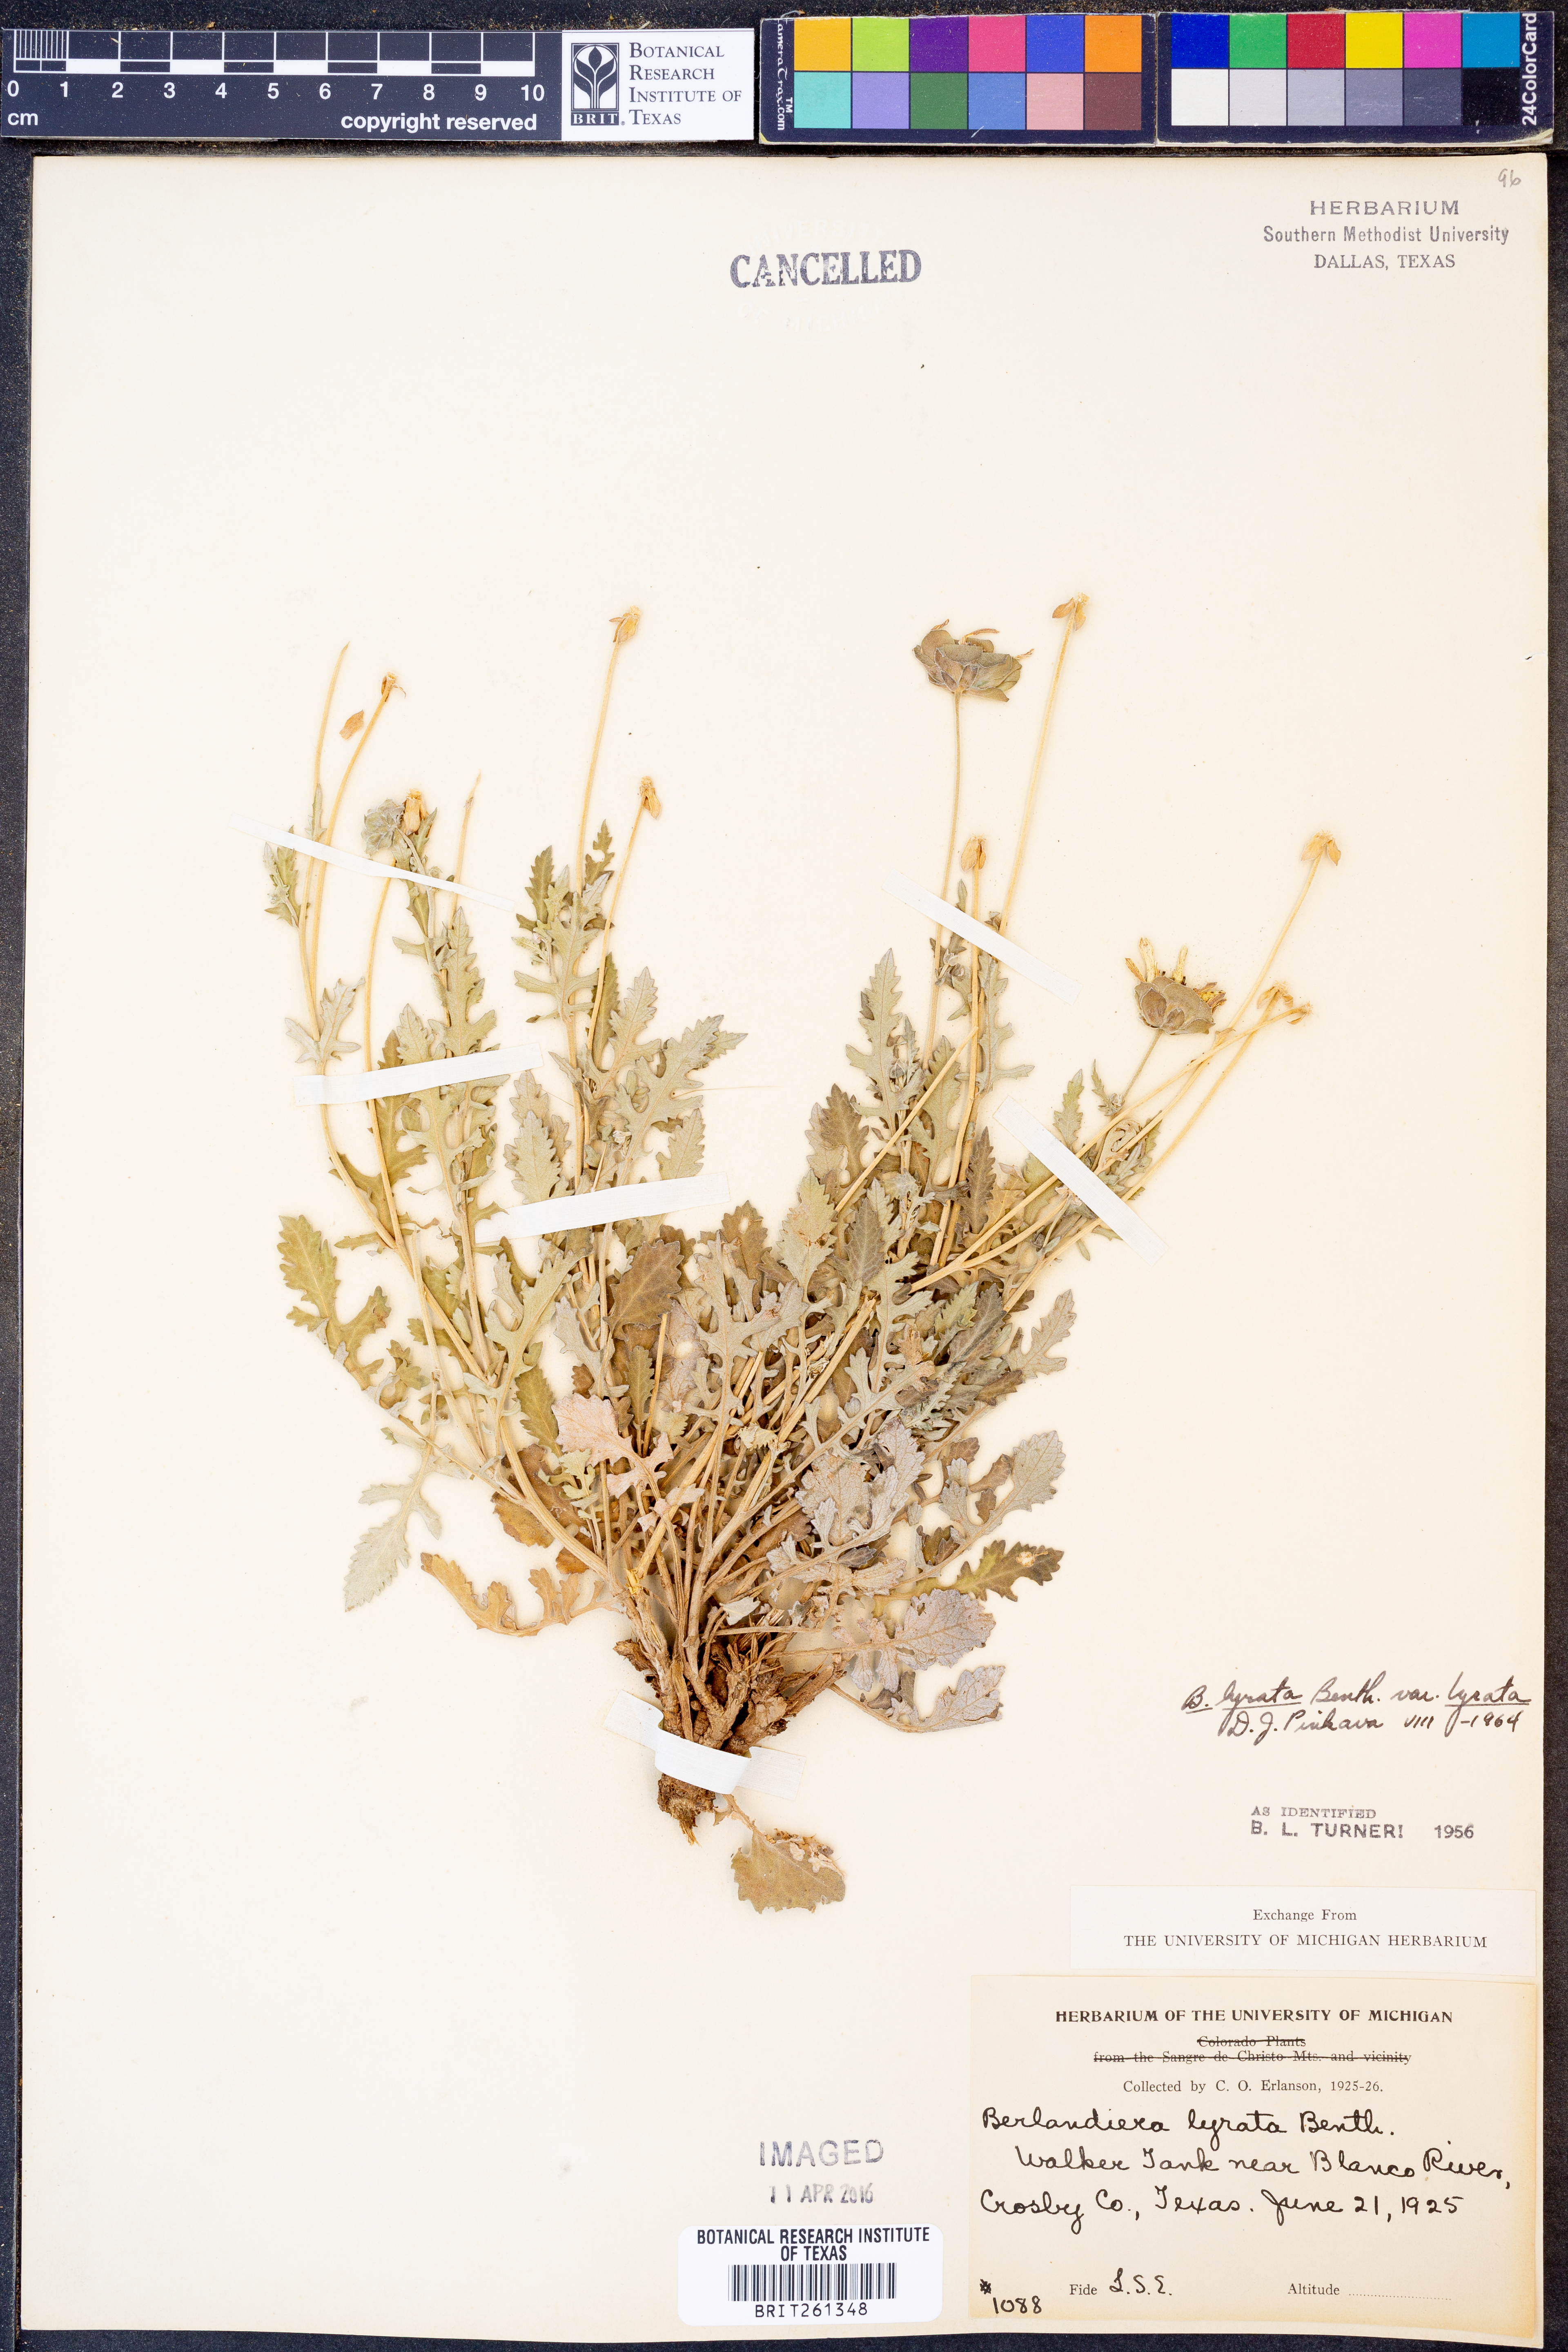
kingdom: Plantae
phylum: Tracheophyta
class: Magnoliopsida
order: Asterales
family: Asteraceae
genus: Berlandiera
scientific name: Berlandiera lyrata
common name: Chocolate-flower
